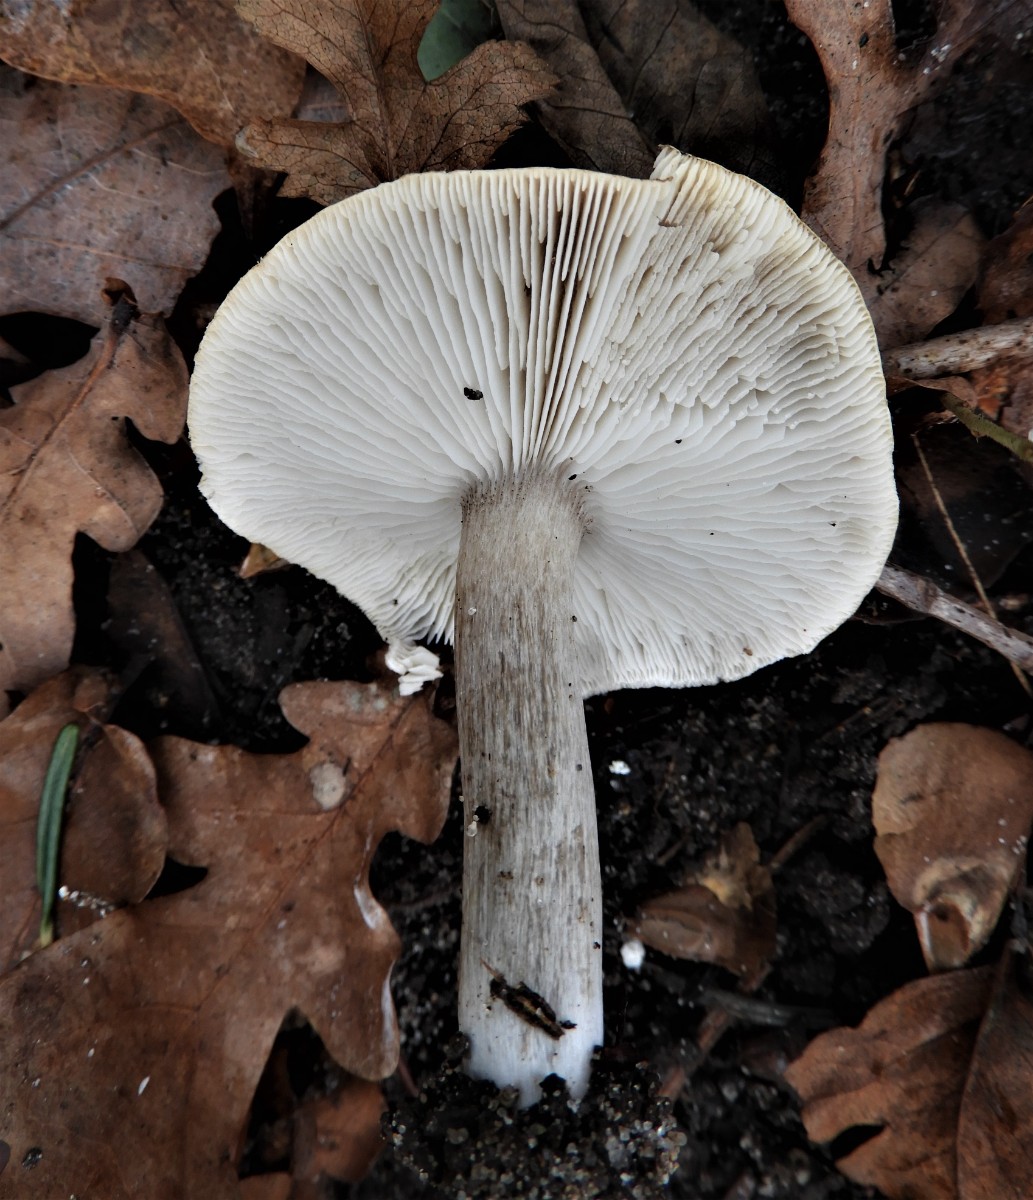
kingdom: Fungi
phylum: Basidiomycota
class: Agaricomycetes
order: Agaricales
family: Tricholomataceae
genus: Tricholoma
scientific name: Tricholoma scalpturatum
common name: gulplettet ridderhat
